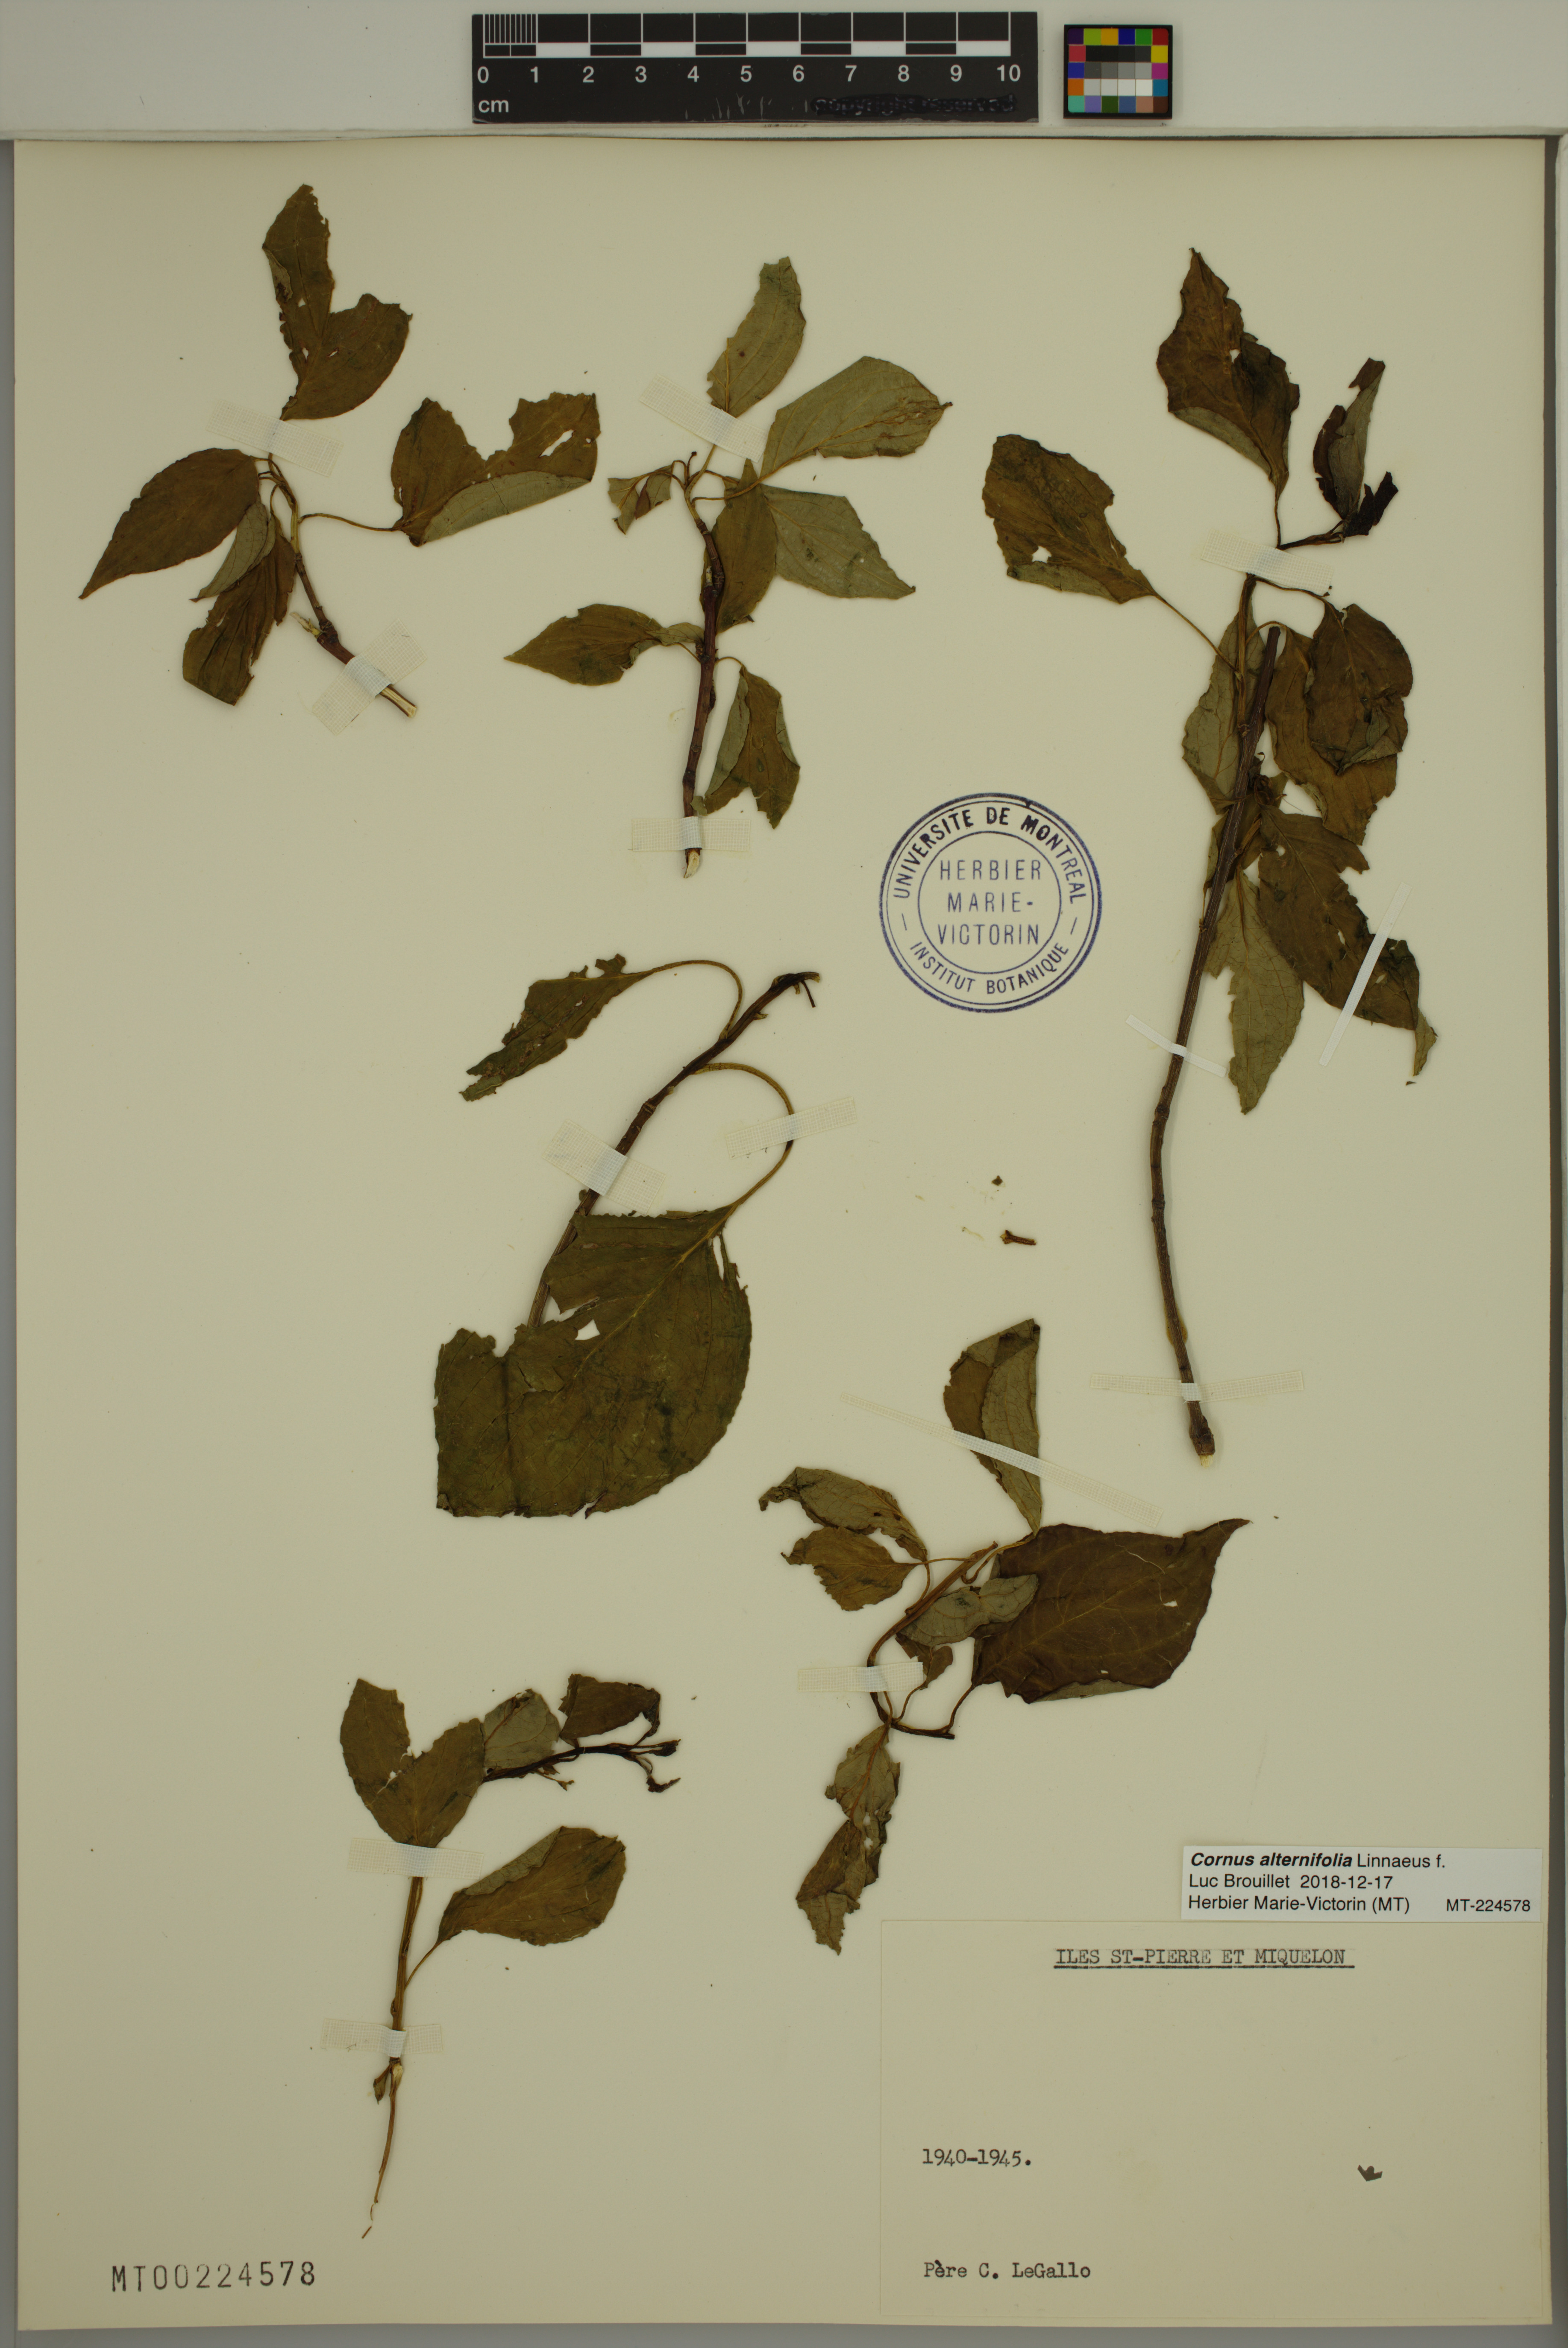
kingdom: Plantae
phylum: Tracheophyta
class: Magnoliopsida
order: Cornales
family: Cornaceae
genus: Cornus
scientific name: Cornus alternifolia
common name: Pagoda dogwood
